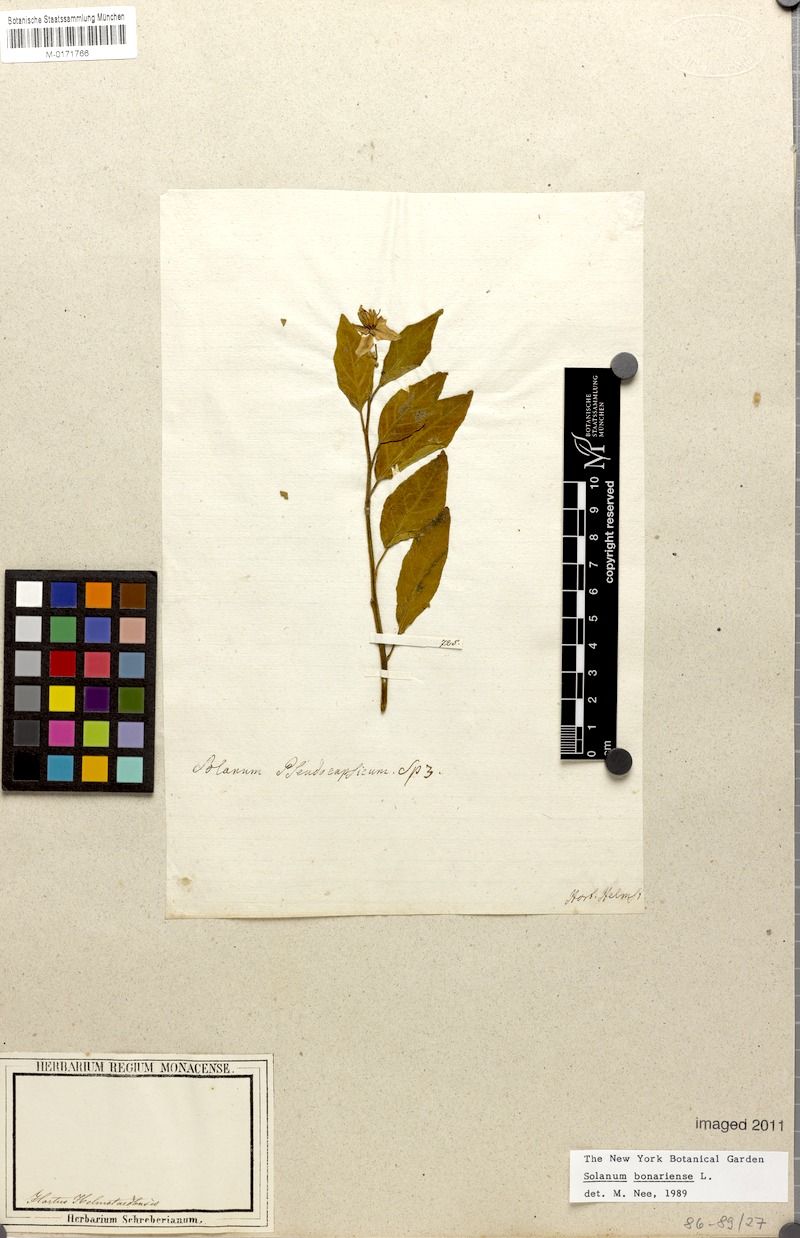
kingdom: Plantae
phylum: Tracheophyta
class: Magnoliopsida
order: Solanales
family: Solanaceae
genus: Solanum
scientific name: Solanum bonariense
